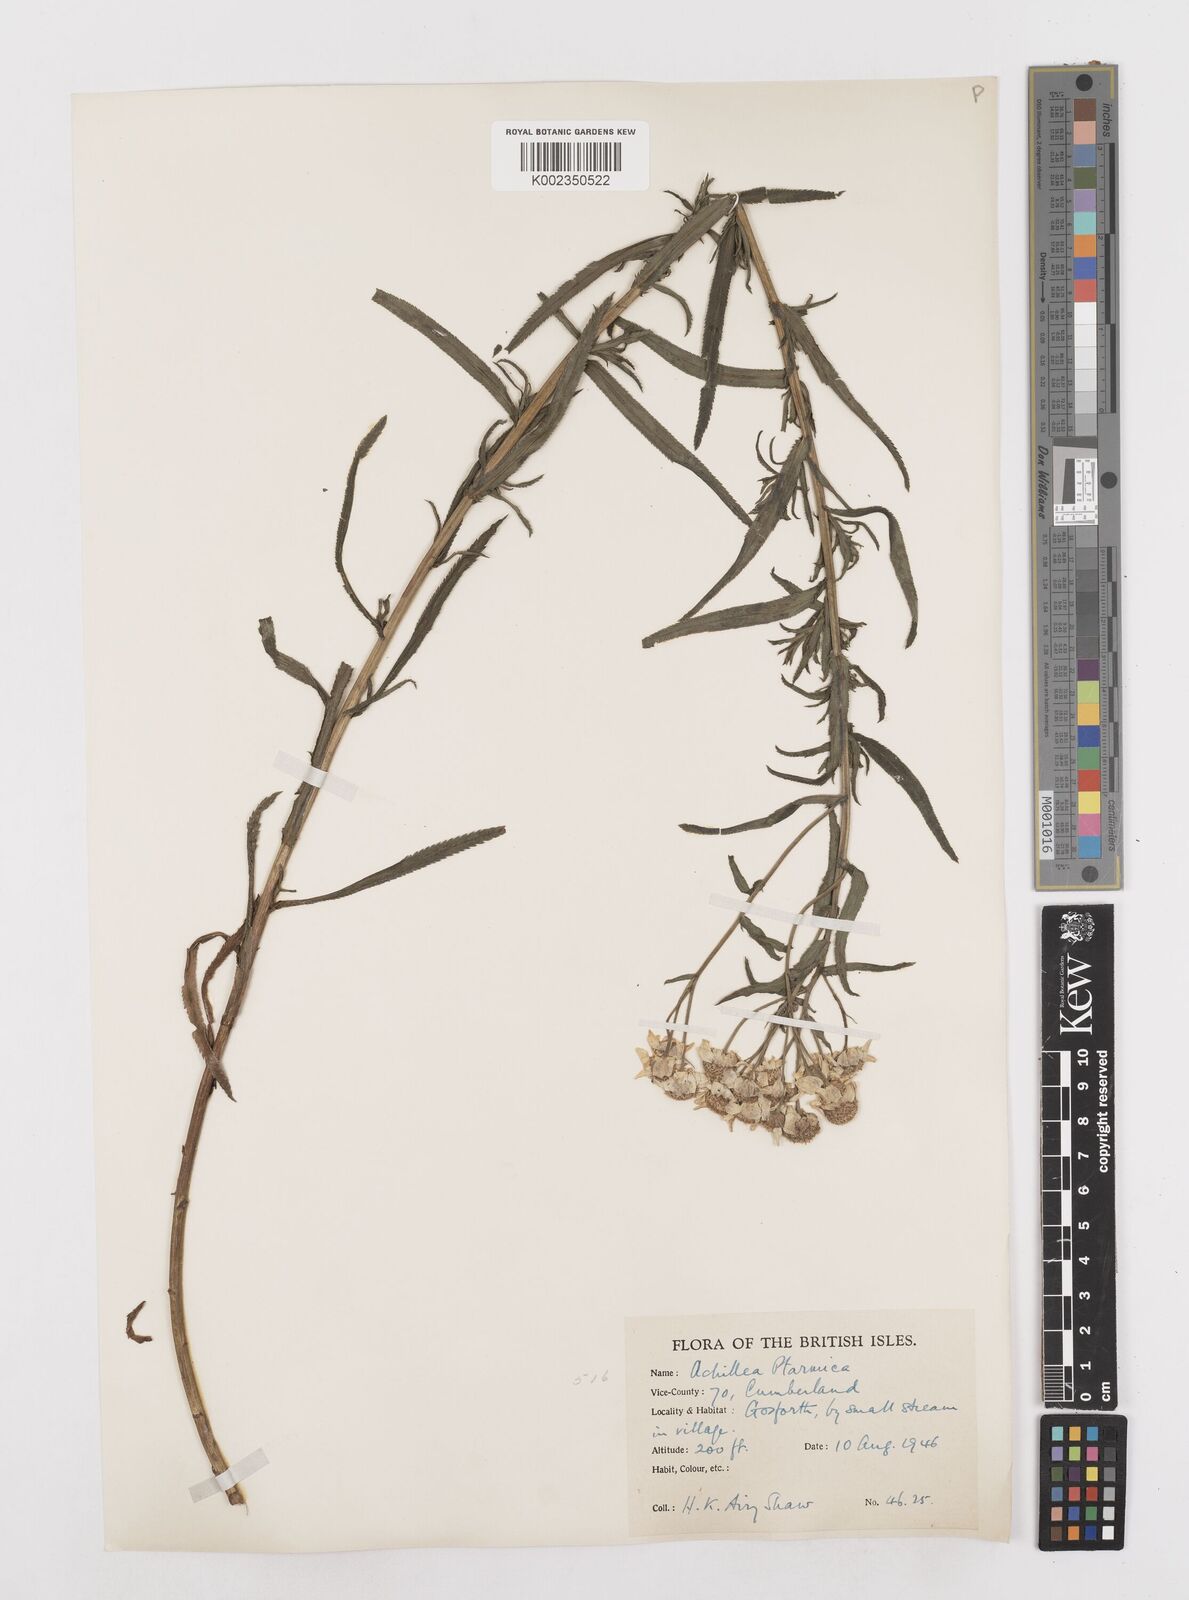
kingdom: Plantae
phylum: Tracheophyta
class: Magnoliopsida
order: Asterales
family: Asteraceae
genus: Achillea
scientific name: Achillea ptarmica
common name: Sneezeweed
